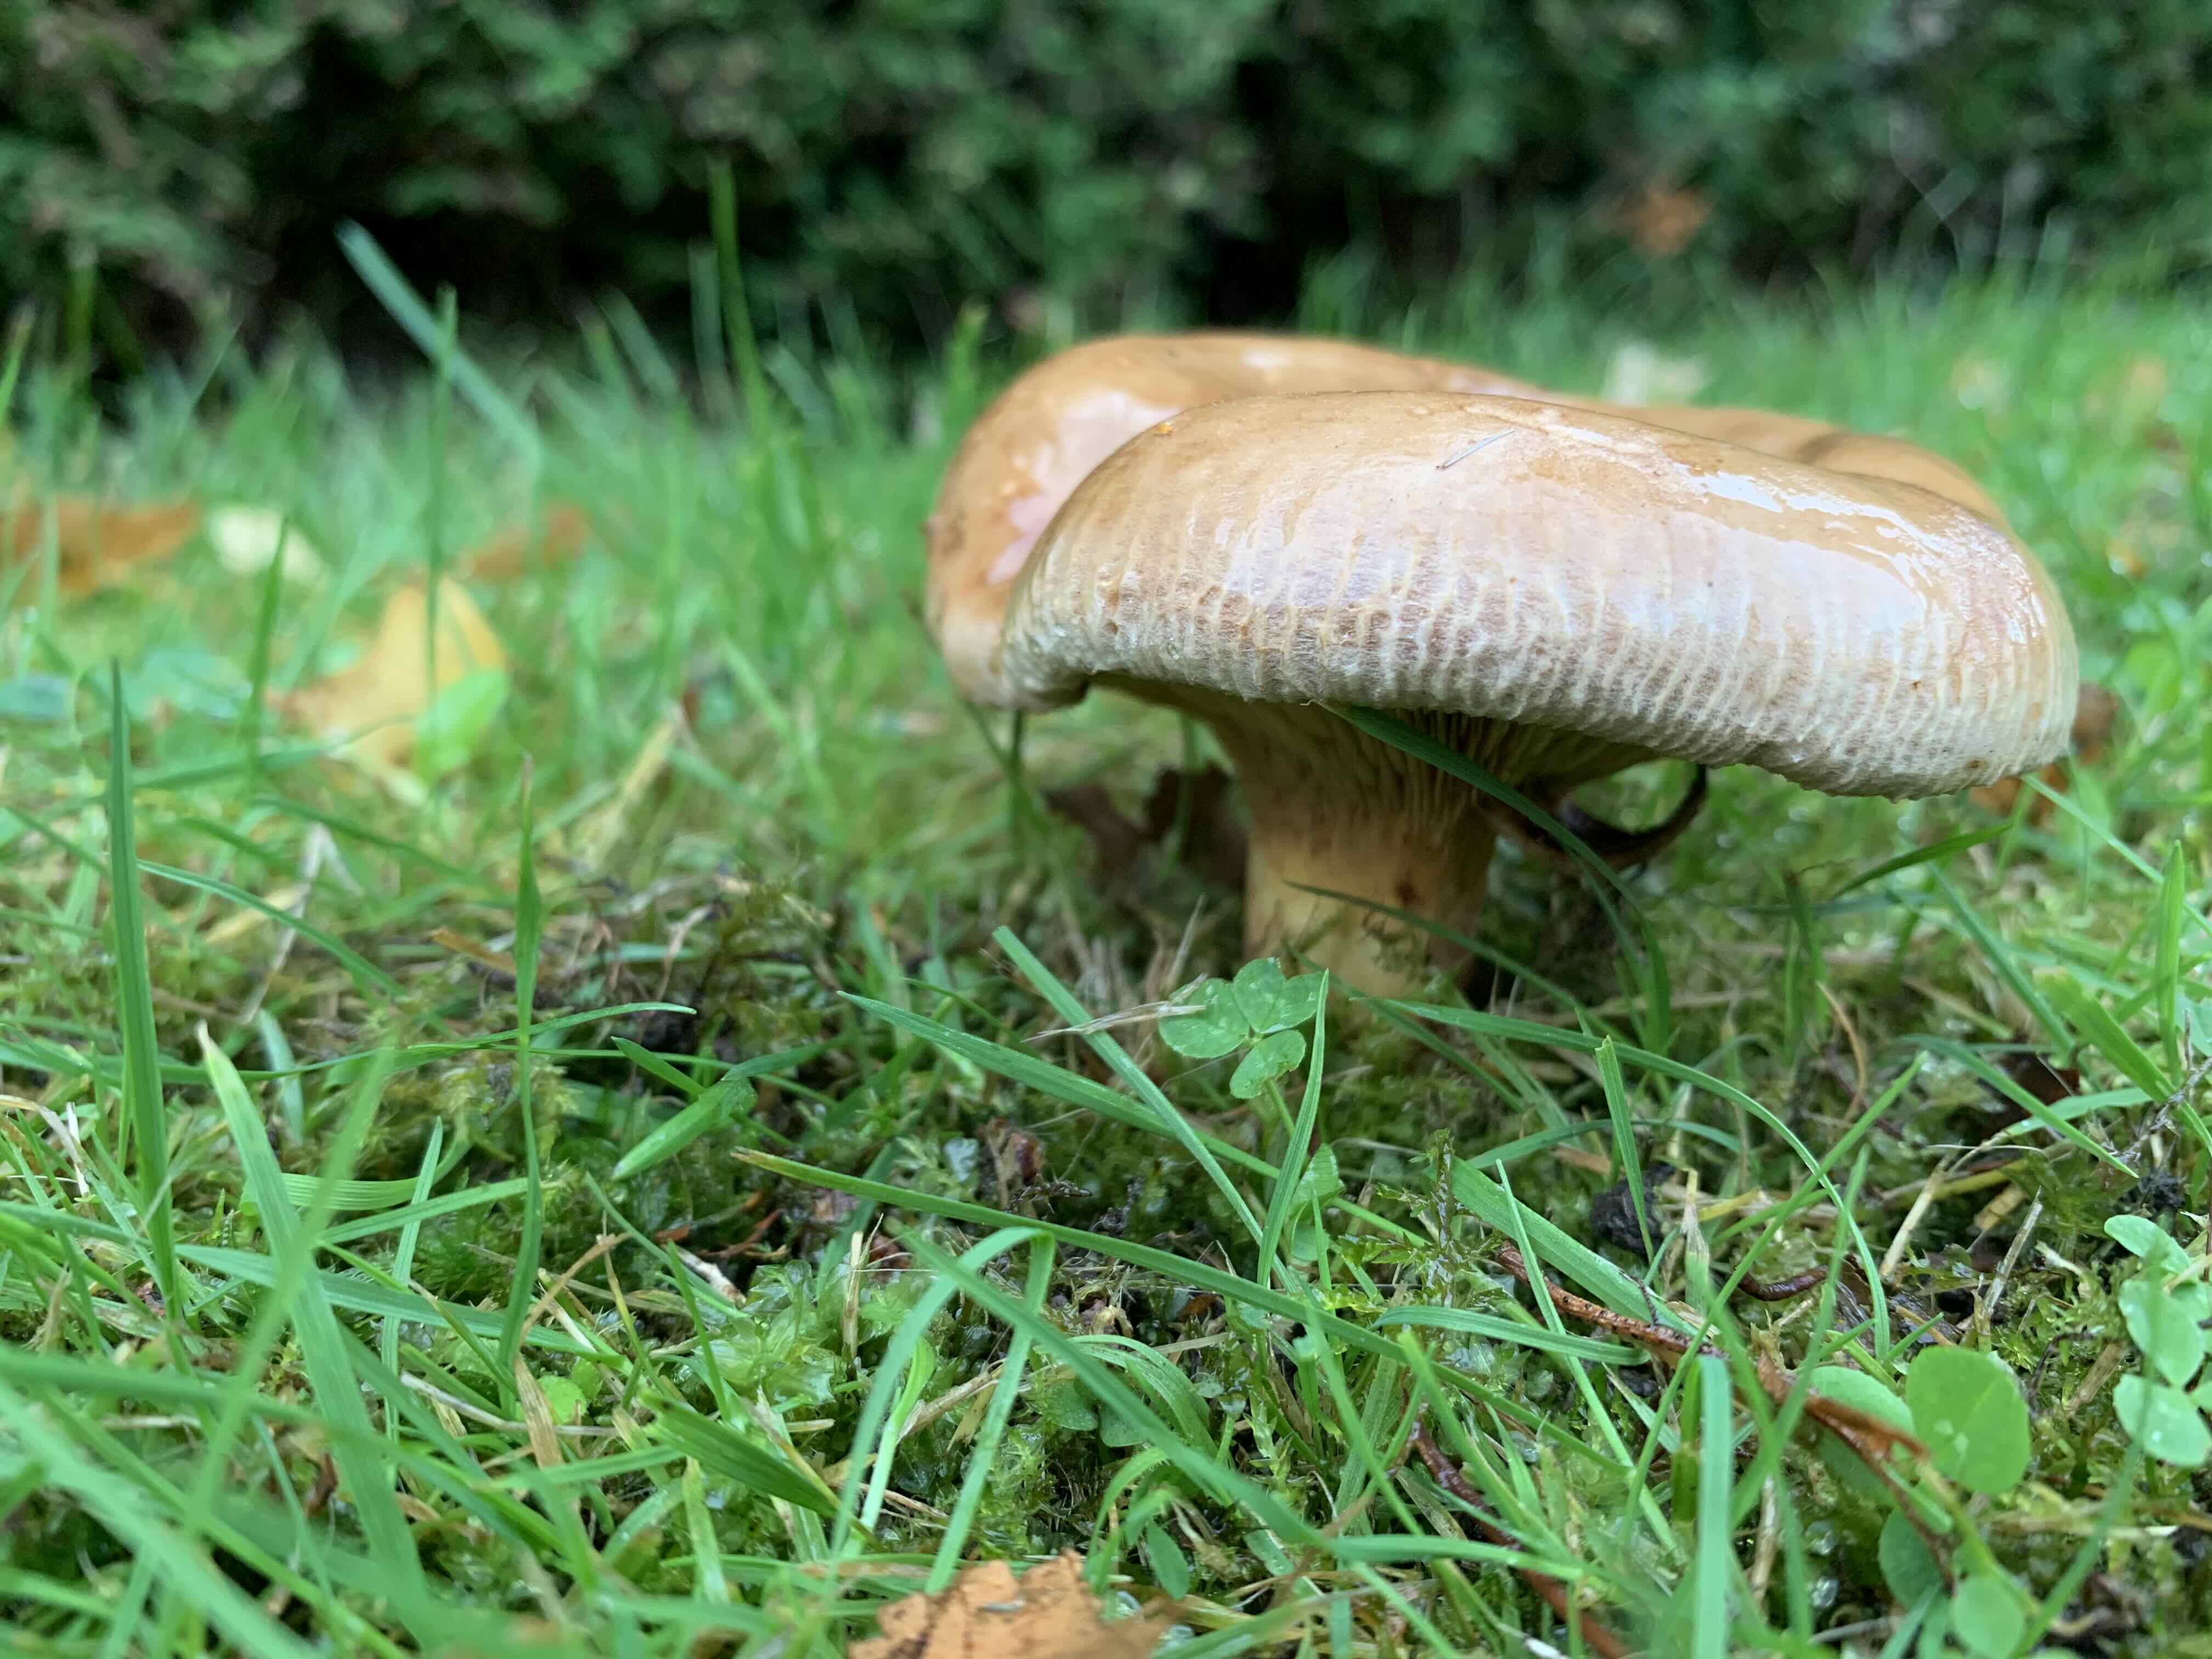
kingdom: Fungi
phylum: Basidiomycota
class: Agaricomycetes
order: Boletales
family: Paxillaceae
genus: Paxillus
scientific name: Paxillus involutus
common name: almindelig netbladhat
